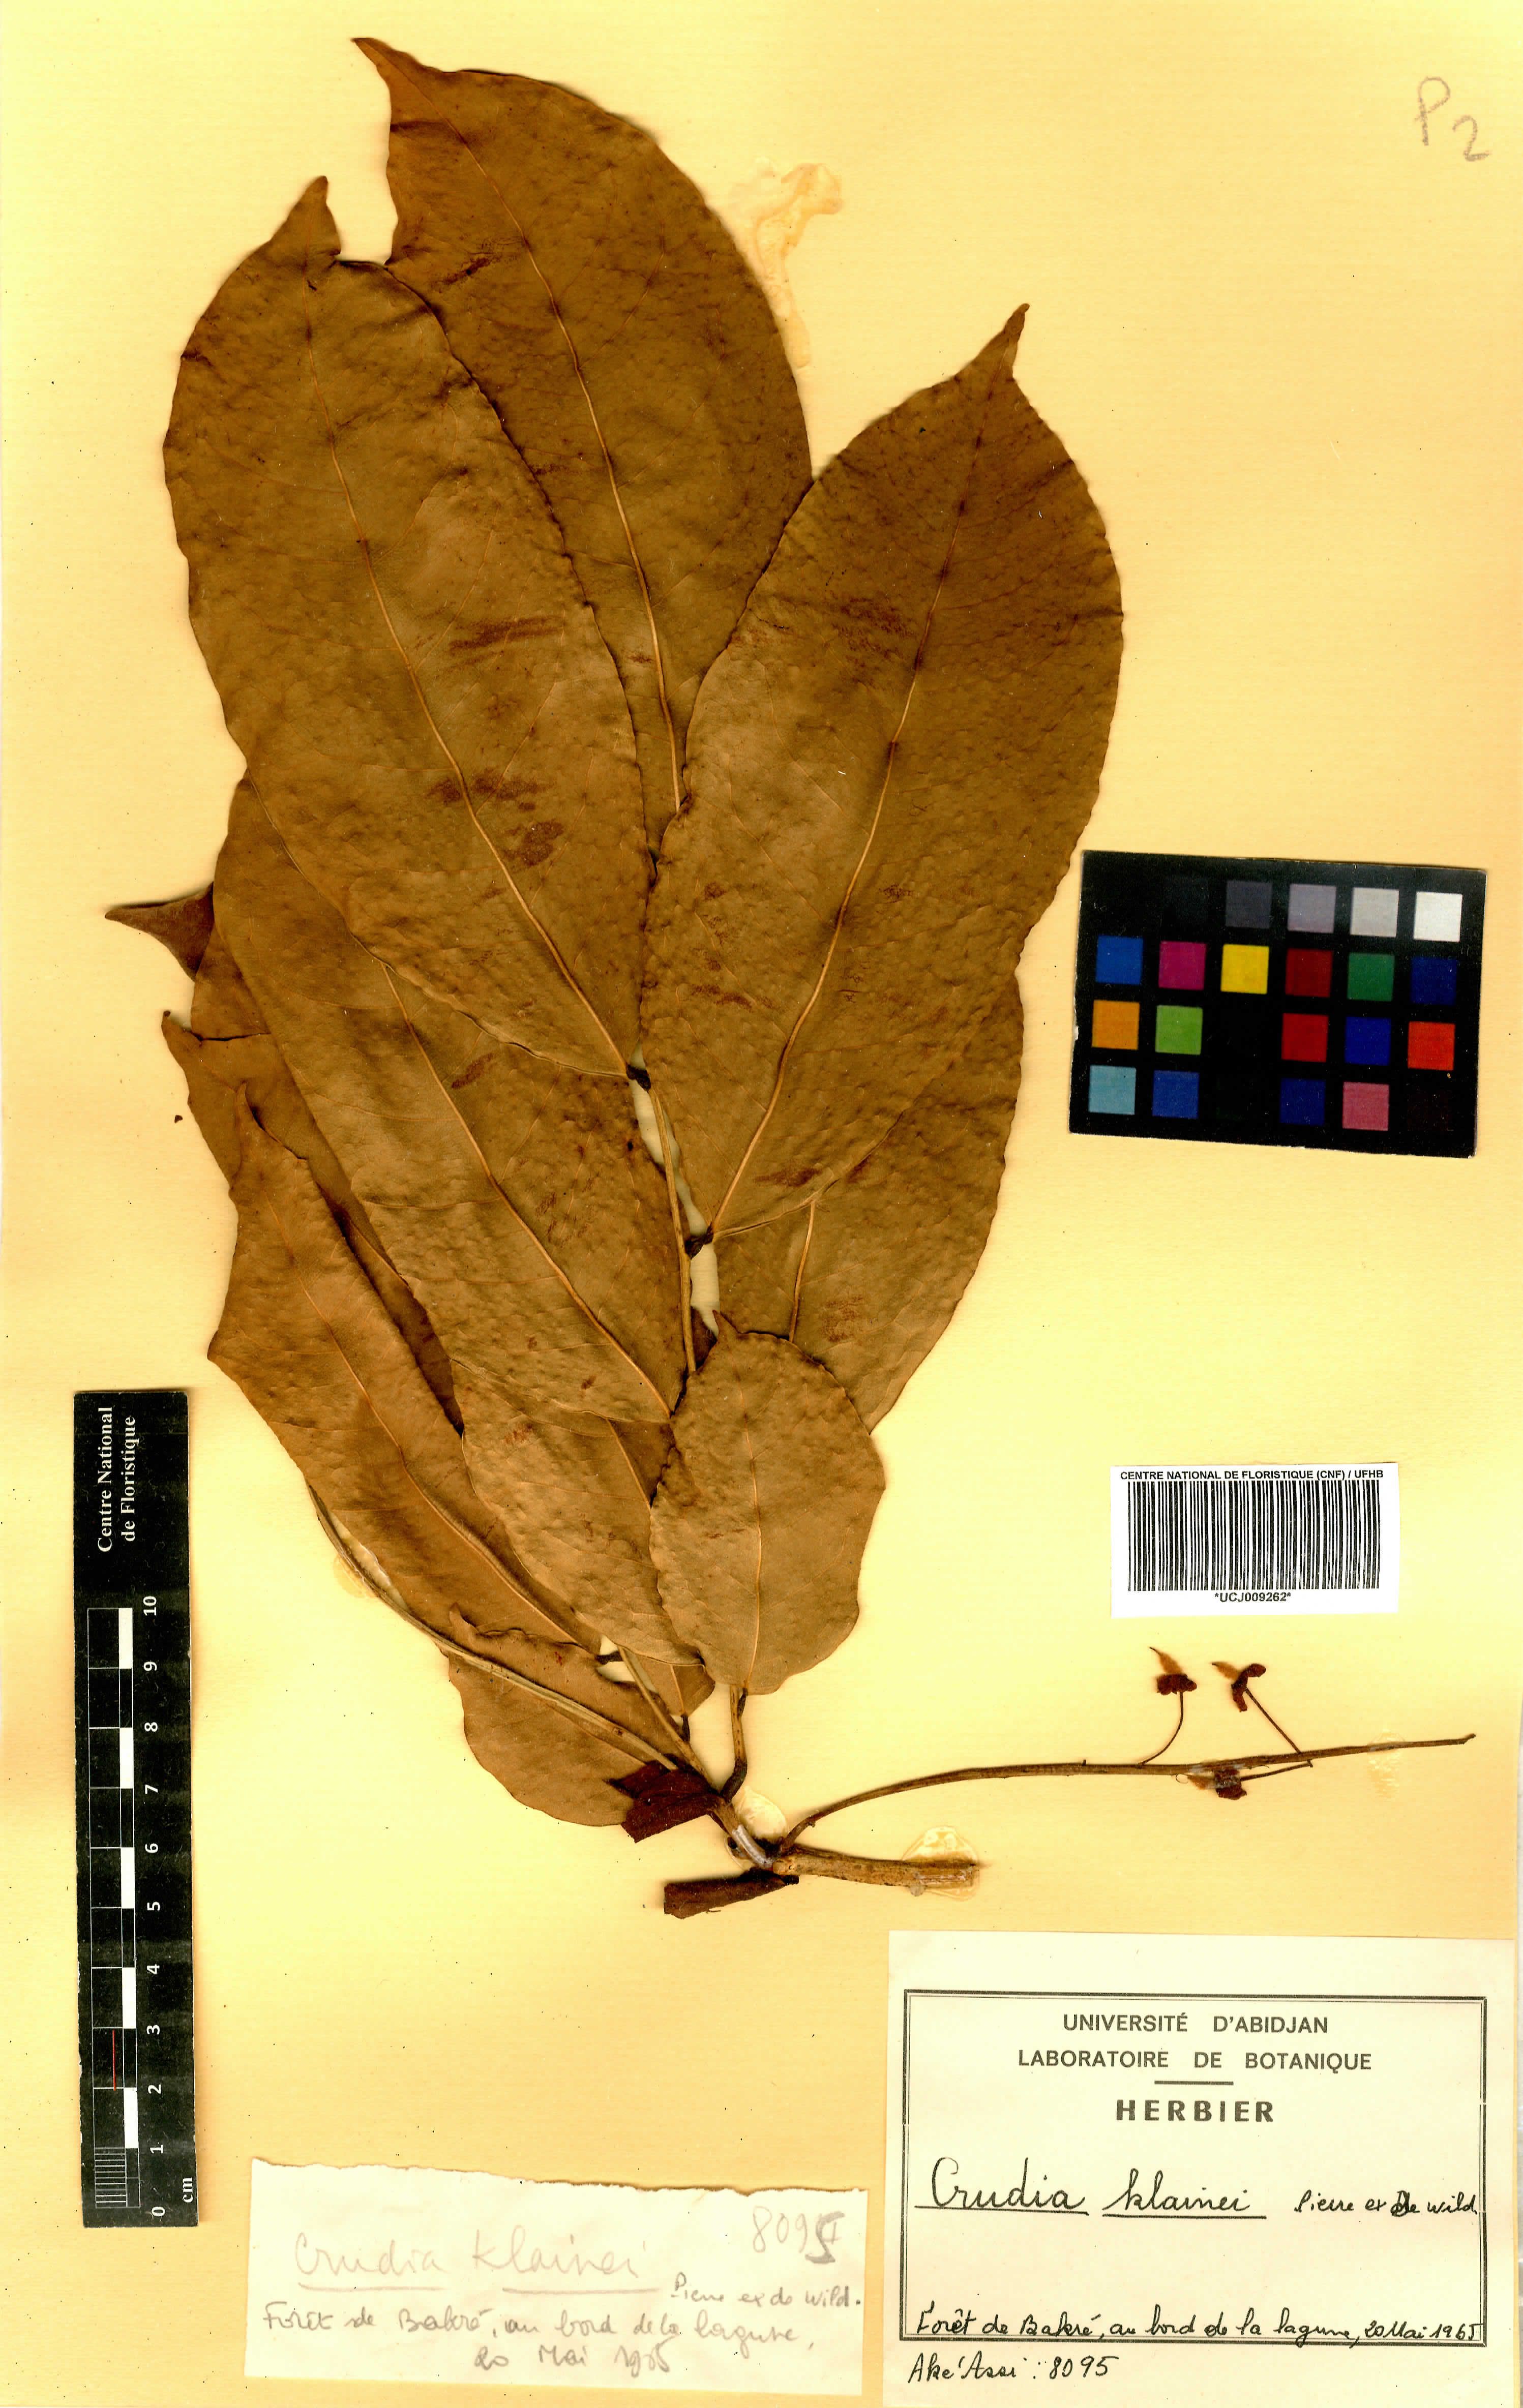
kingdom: Plantae
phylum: Tracheophyta
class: Magnoliopsida
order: Fabales
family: Fabaceae
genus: Crudia
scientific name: Crudia klainei
